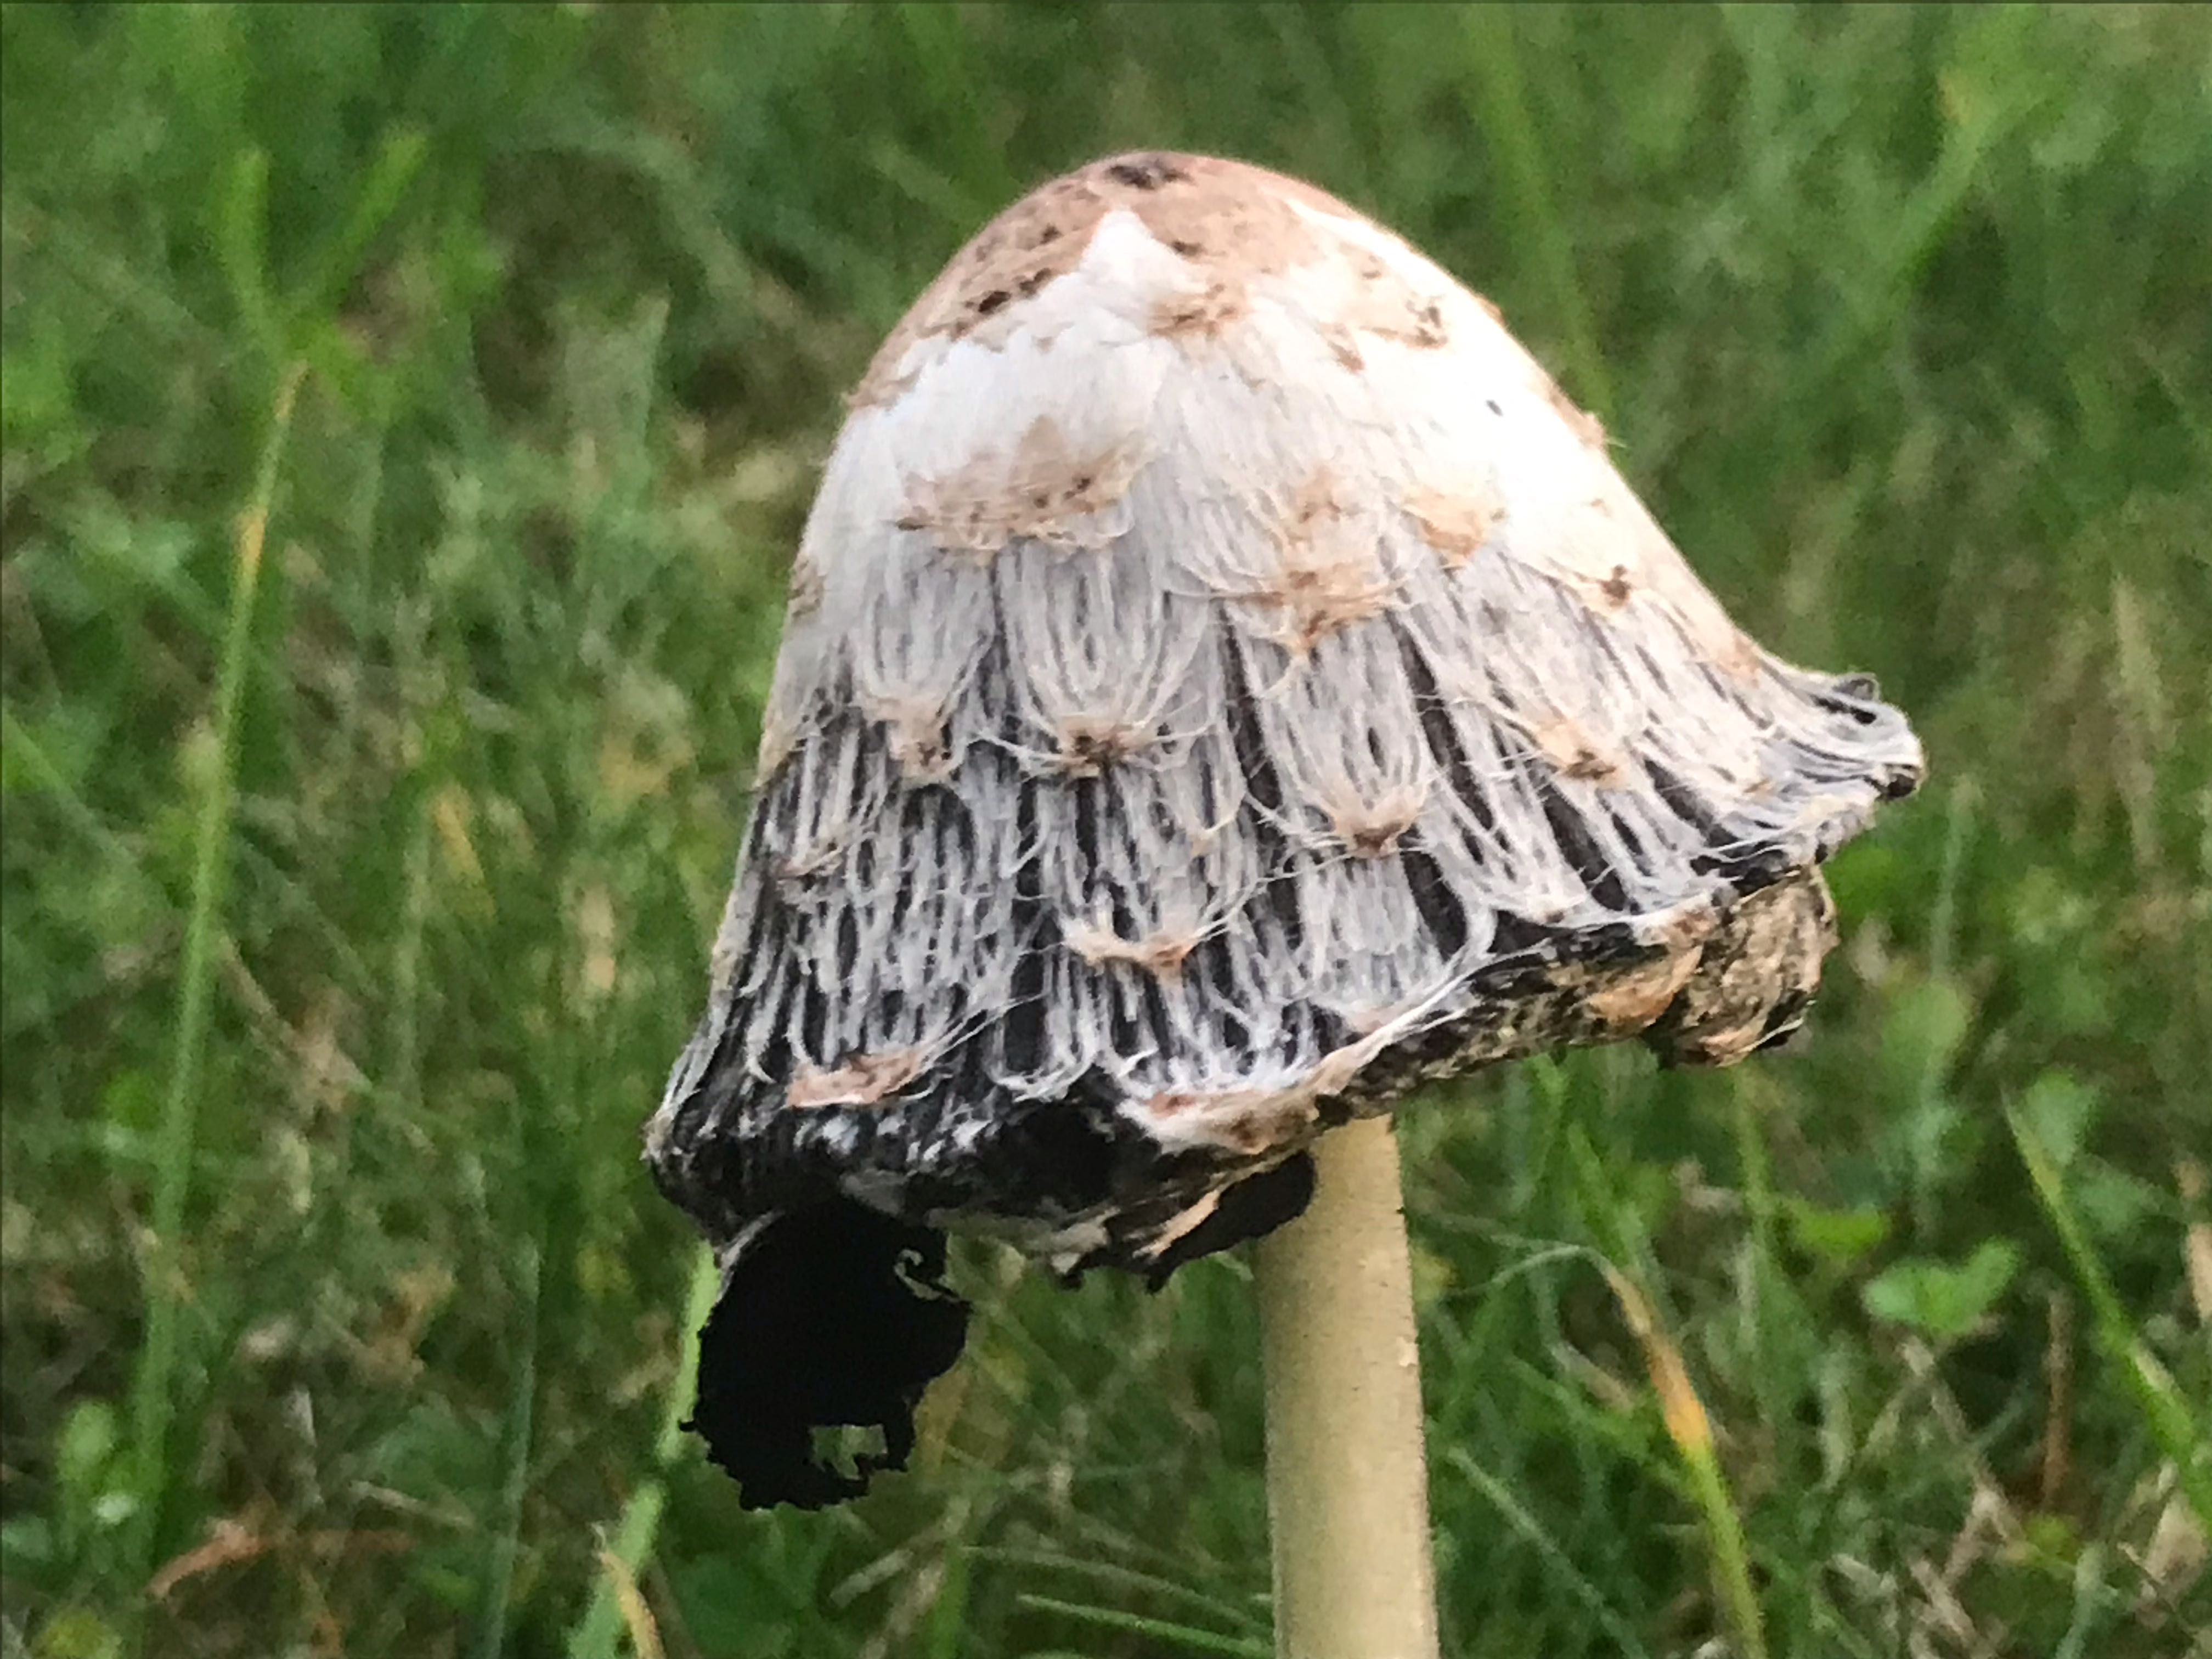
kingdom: Fungi
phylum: Basidiomycota
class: Agaricomycetes
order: Agaricales
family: Agaricaceae
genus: Coprinus
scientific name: Coprinus comatus
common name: stor parykhat
